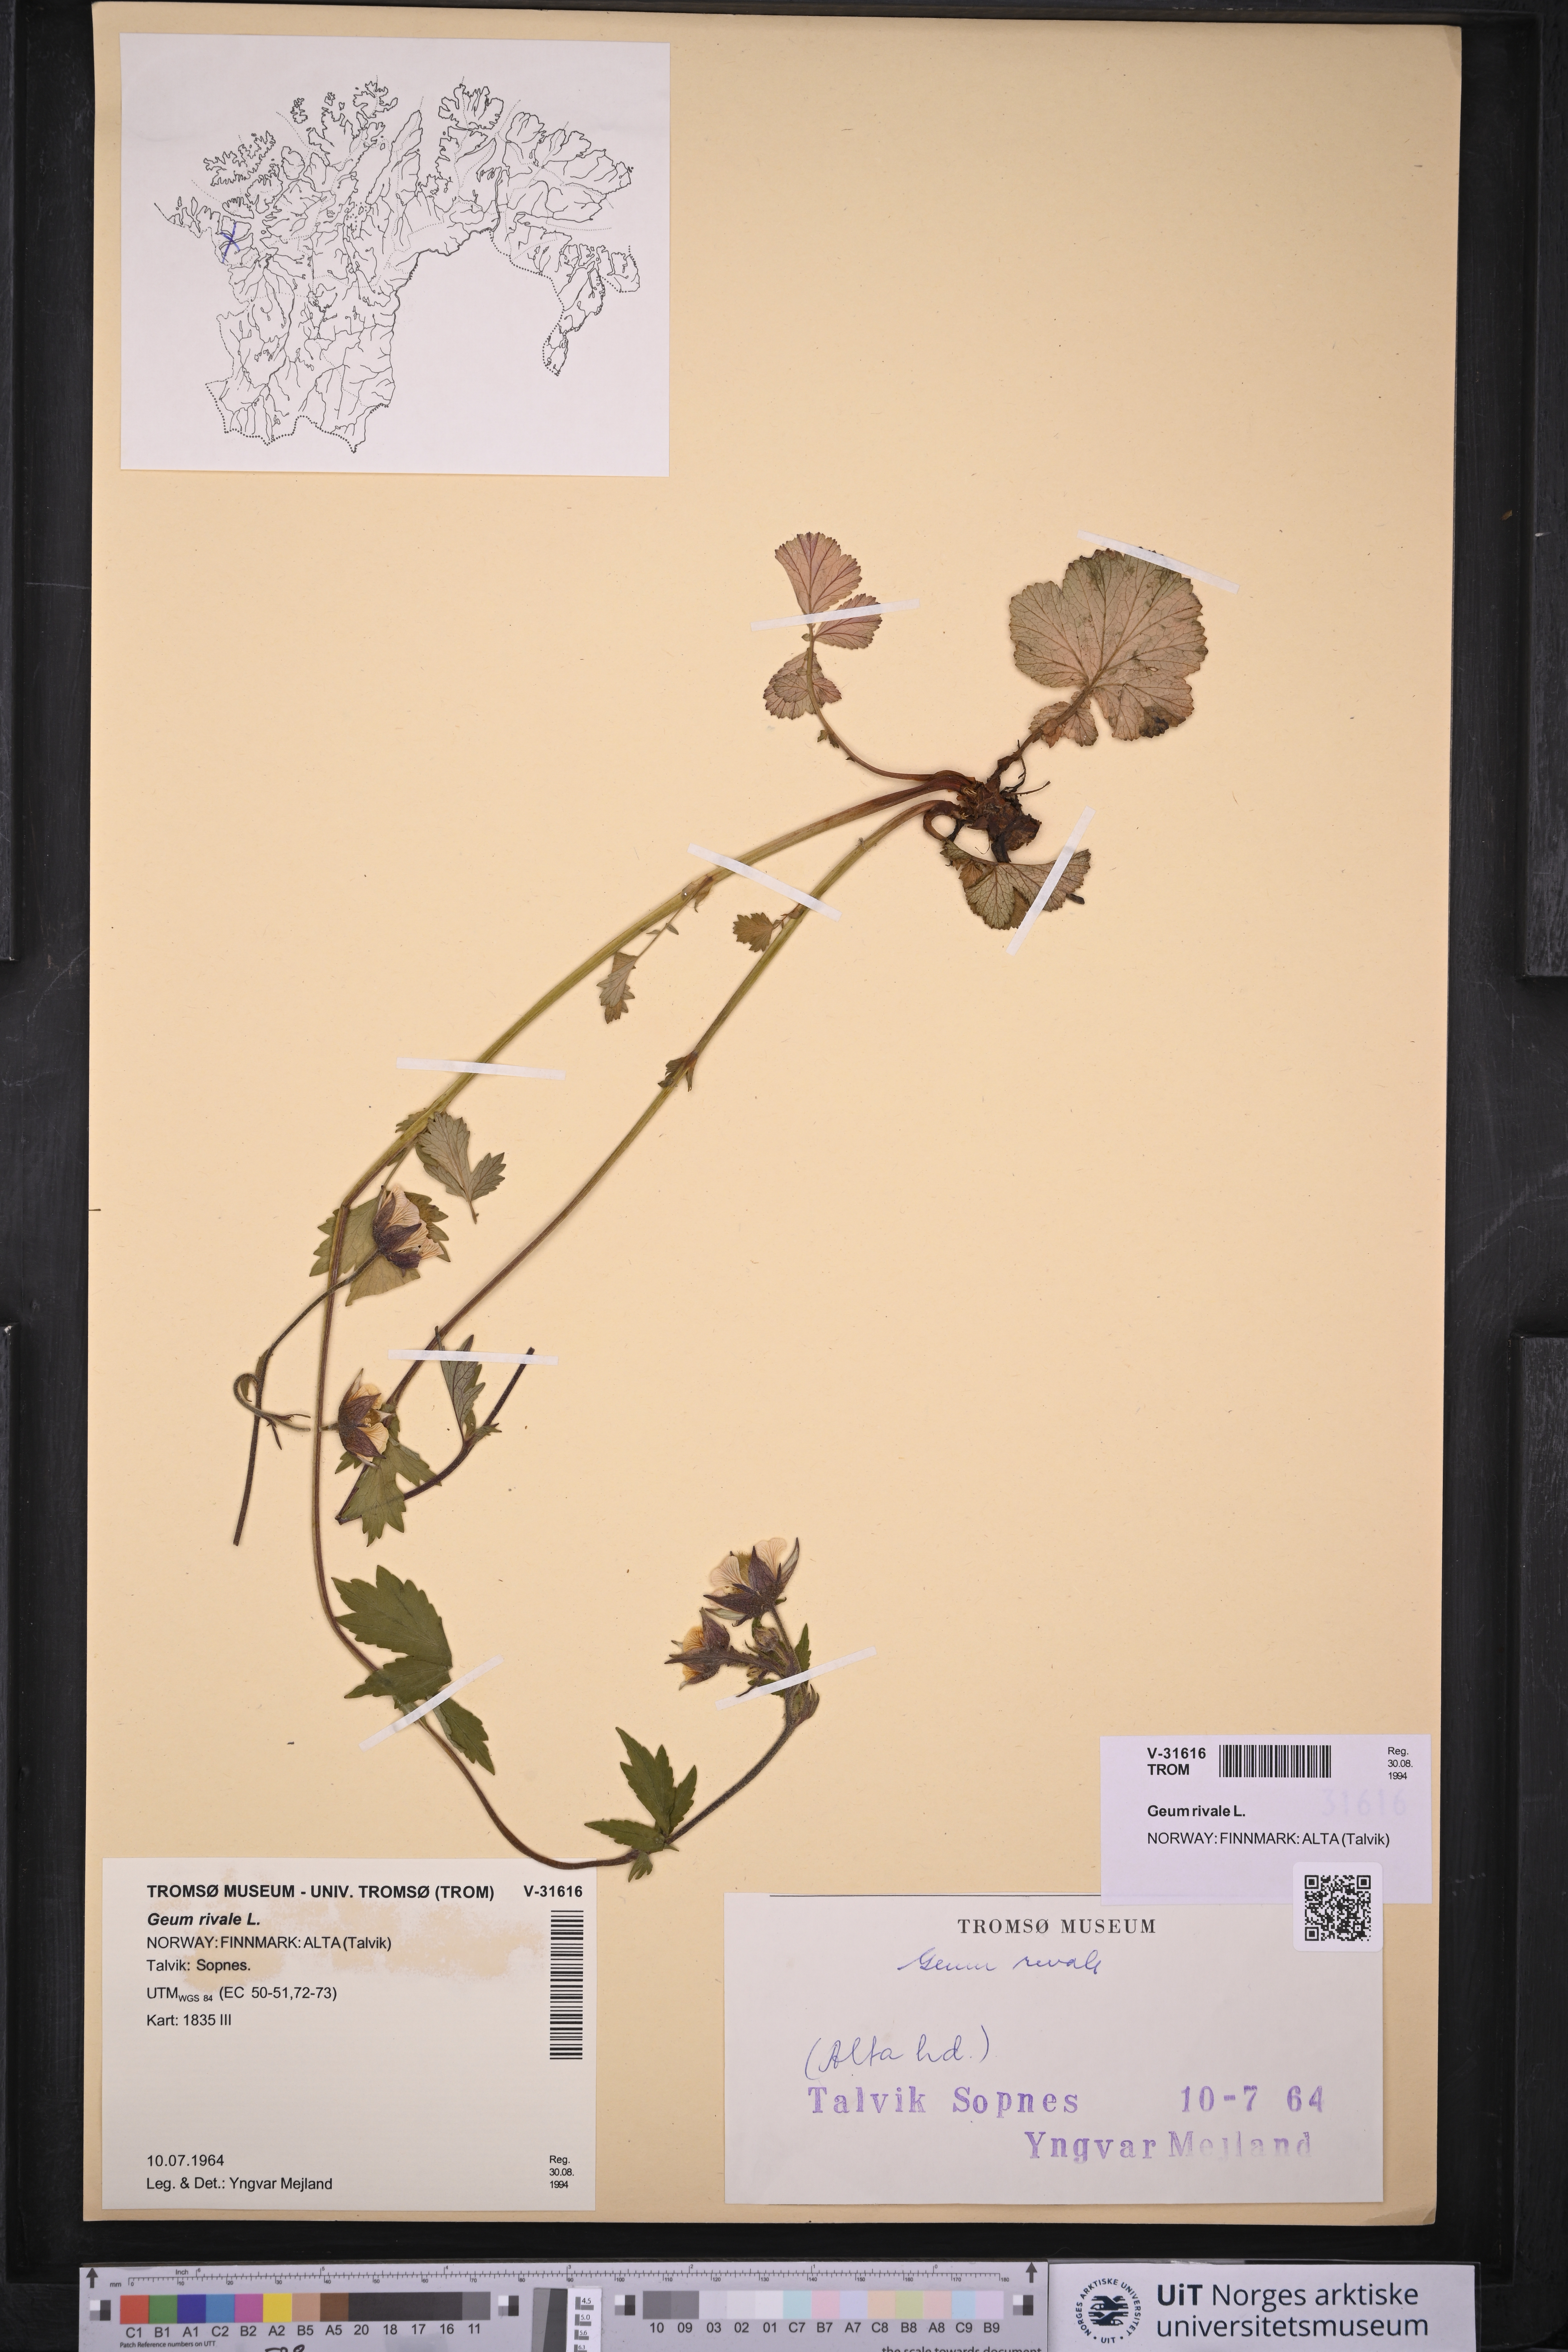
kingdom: Plantae
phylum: Tracheophyta
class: Magnoliopsida
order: Rosales
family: Rosaceae
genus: Geum
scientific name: Geum rivale
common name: Water avens
